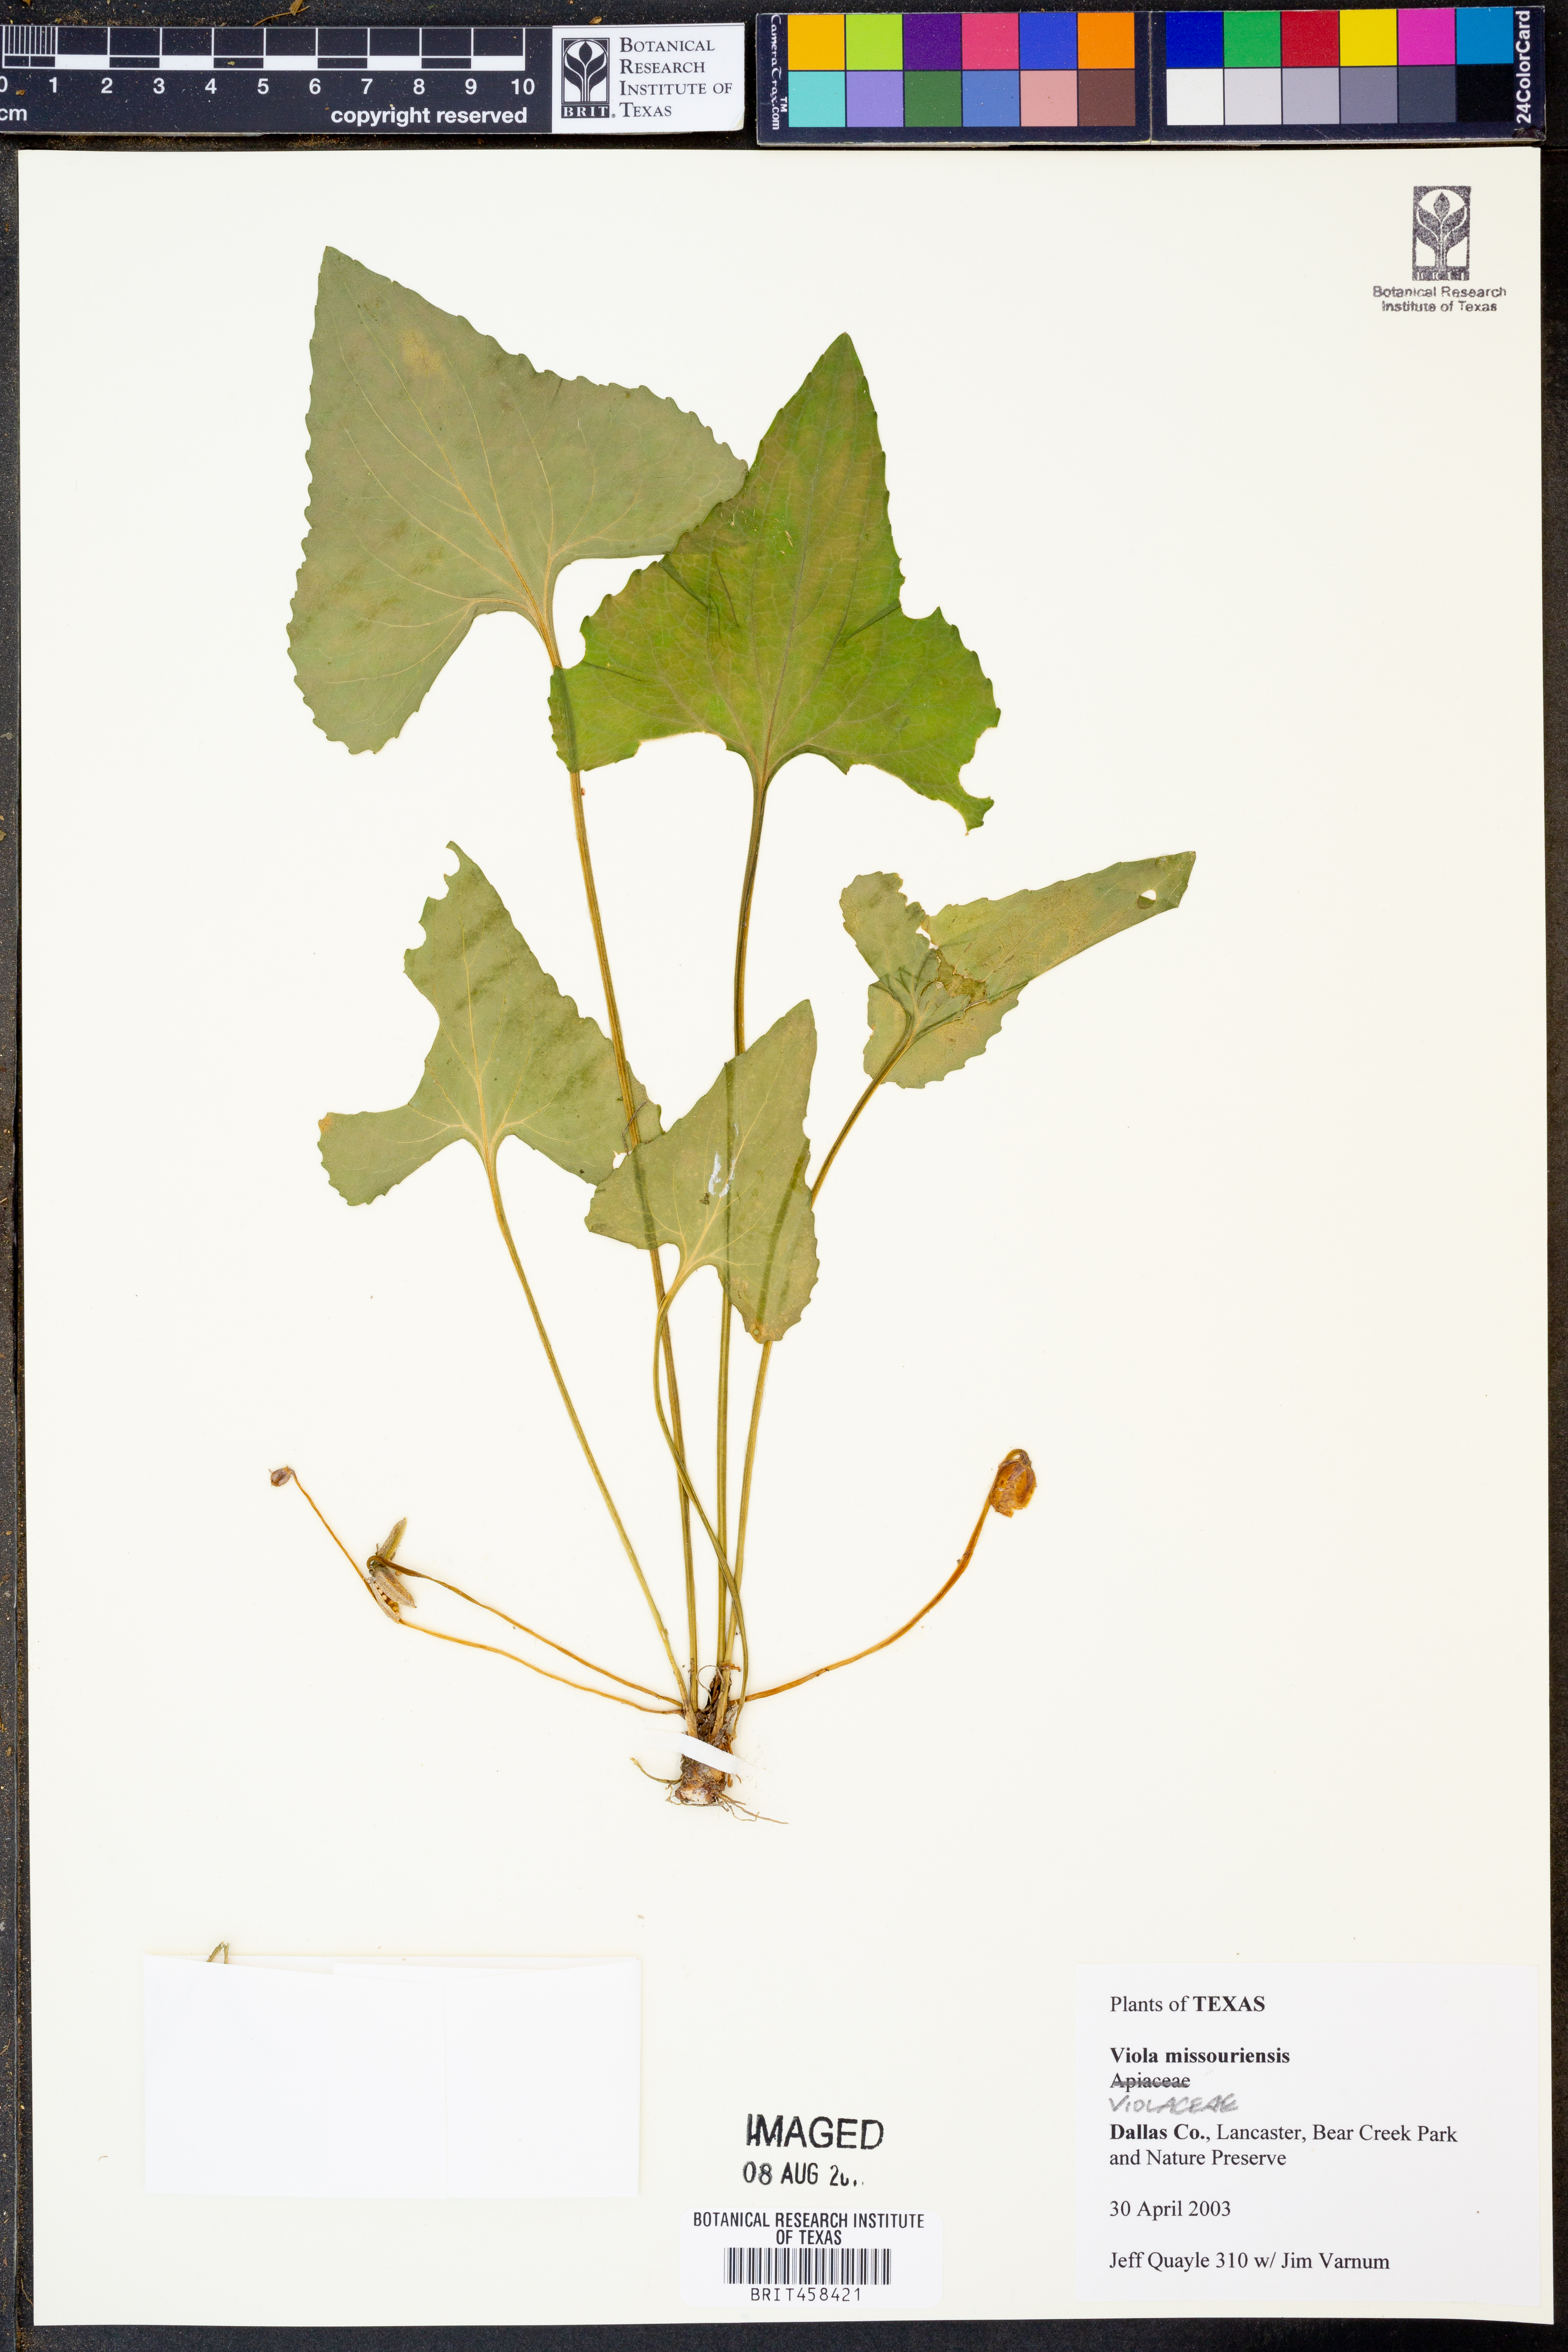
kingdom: Plantae
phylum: Tracheophyta
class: Magnoliopsida
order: Malpighiales
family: Violaceae
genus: Viola
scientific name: Viola missouriensis
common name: Missouri violet
